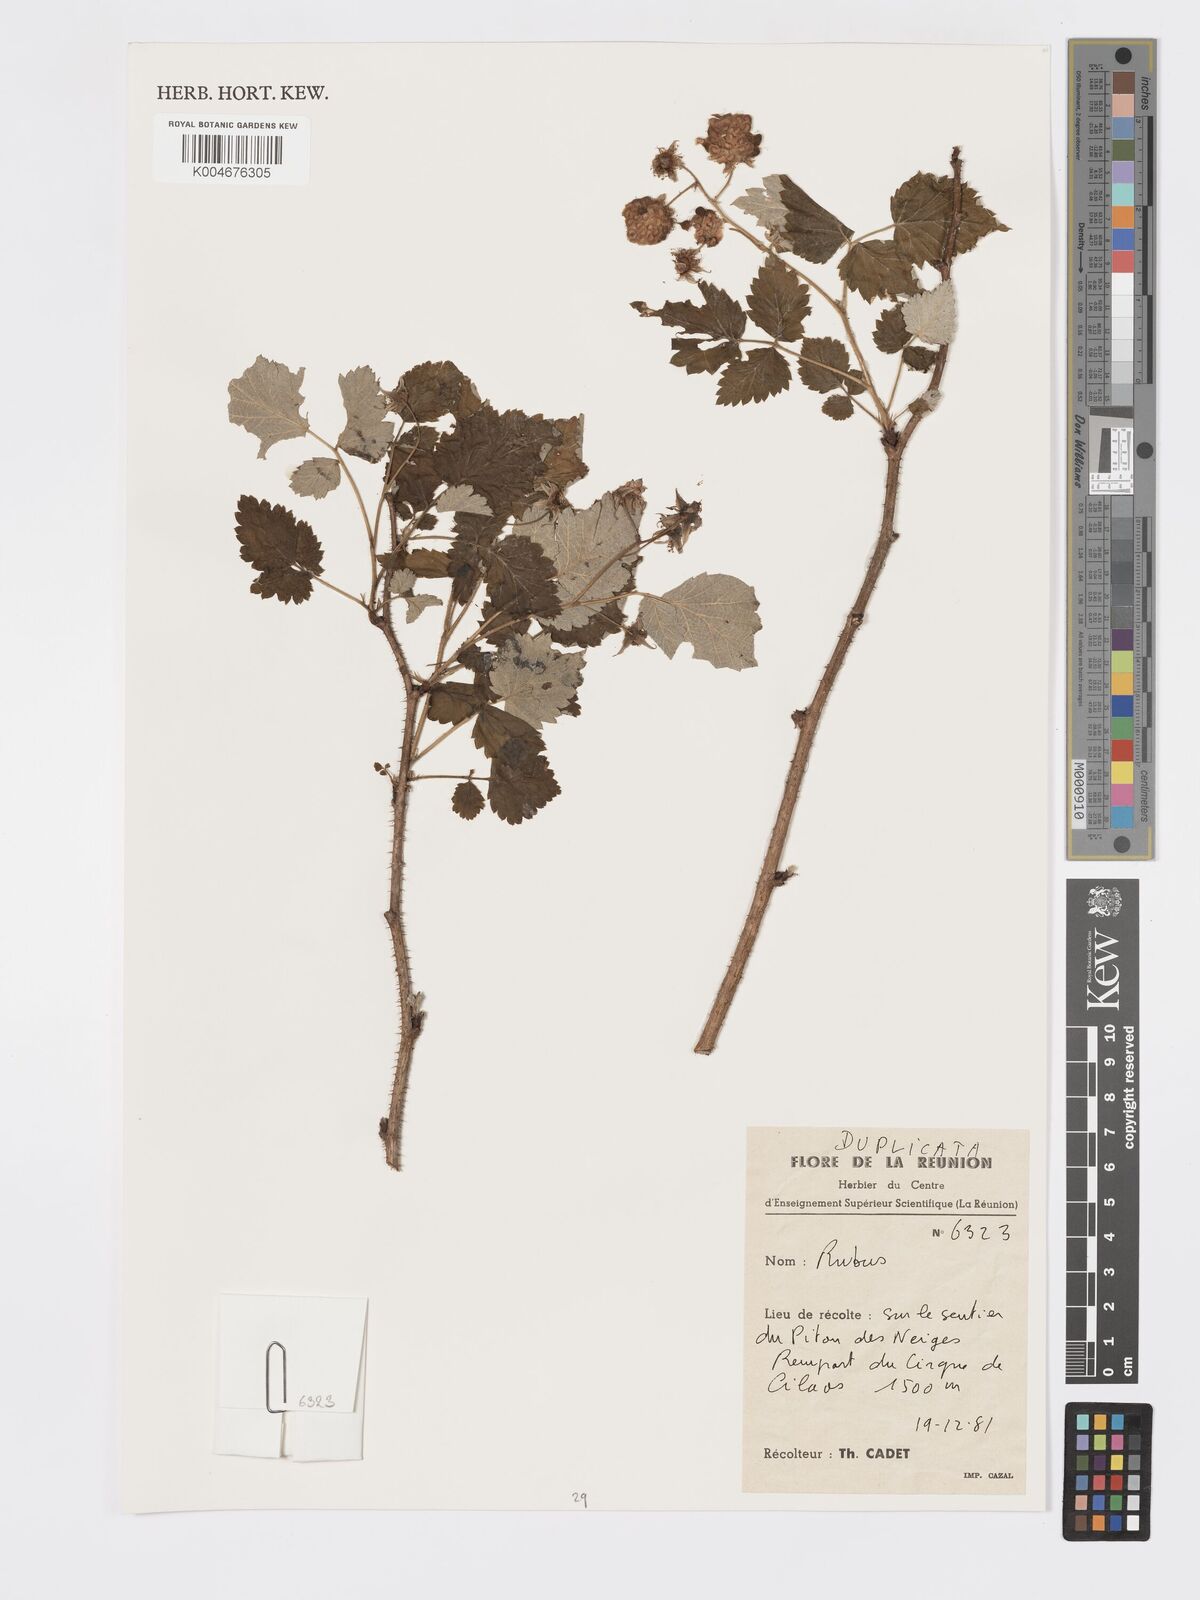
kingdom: Plantae
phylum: Tracheophyta
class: Magnoliopsida
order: Rosales
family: Rosaceae
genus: Rubus
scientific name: Rubus
